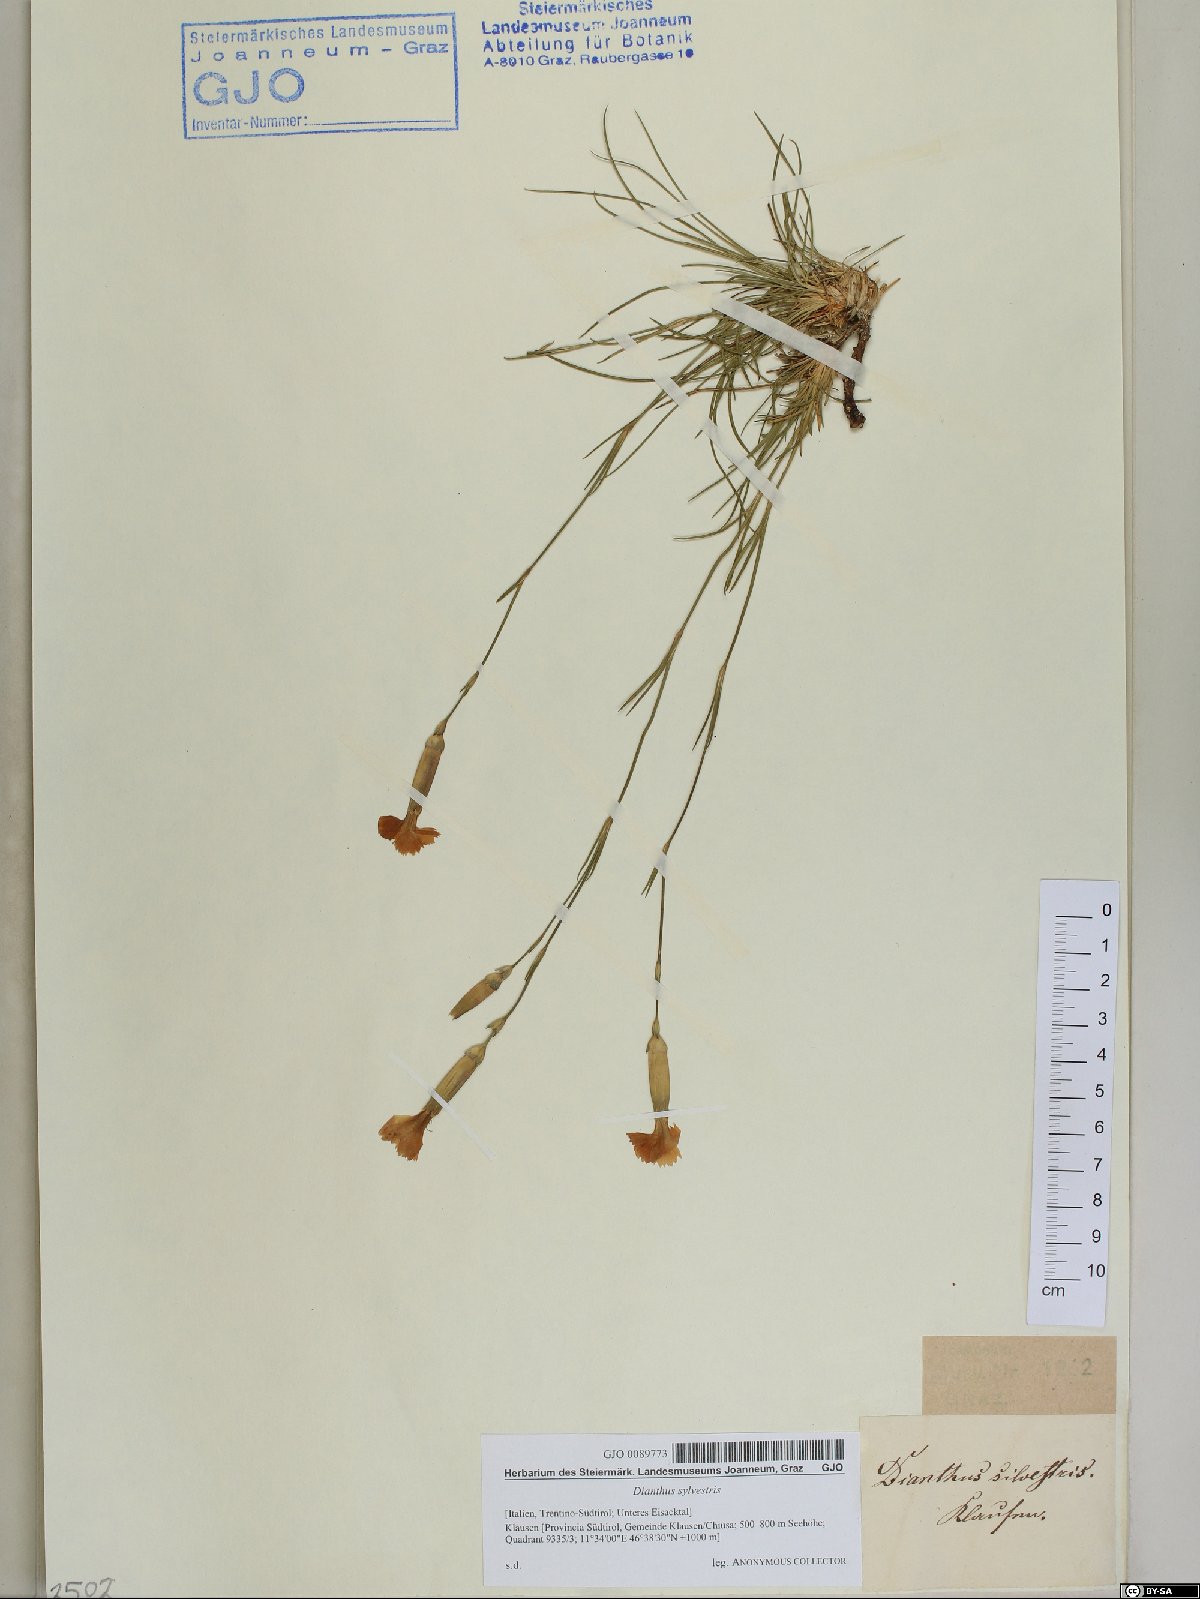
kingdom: Plantae
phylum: Tracheophyta
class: Magnoliopsida
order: Caryophyllales
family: Caryophyllaceae
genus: Dianthus
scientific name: Dianthus sylvestris
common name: Wood pink
